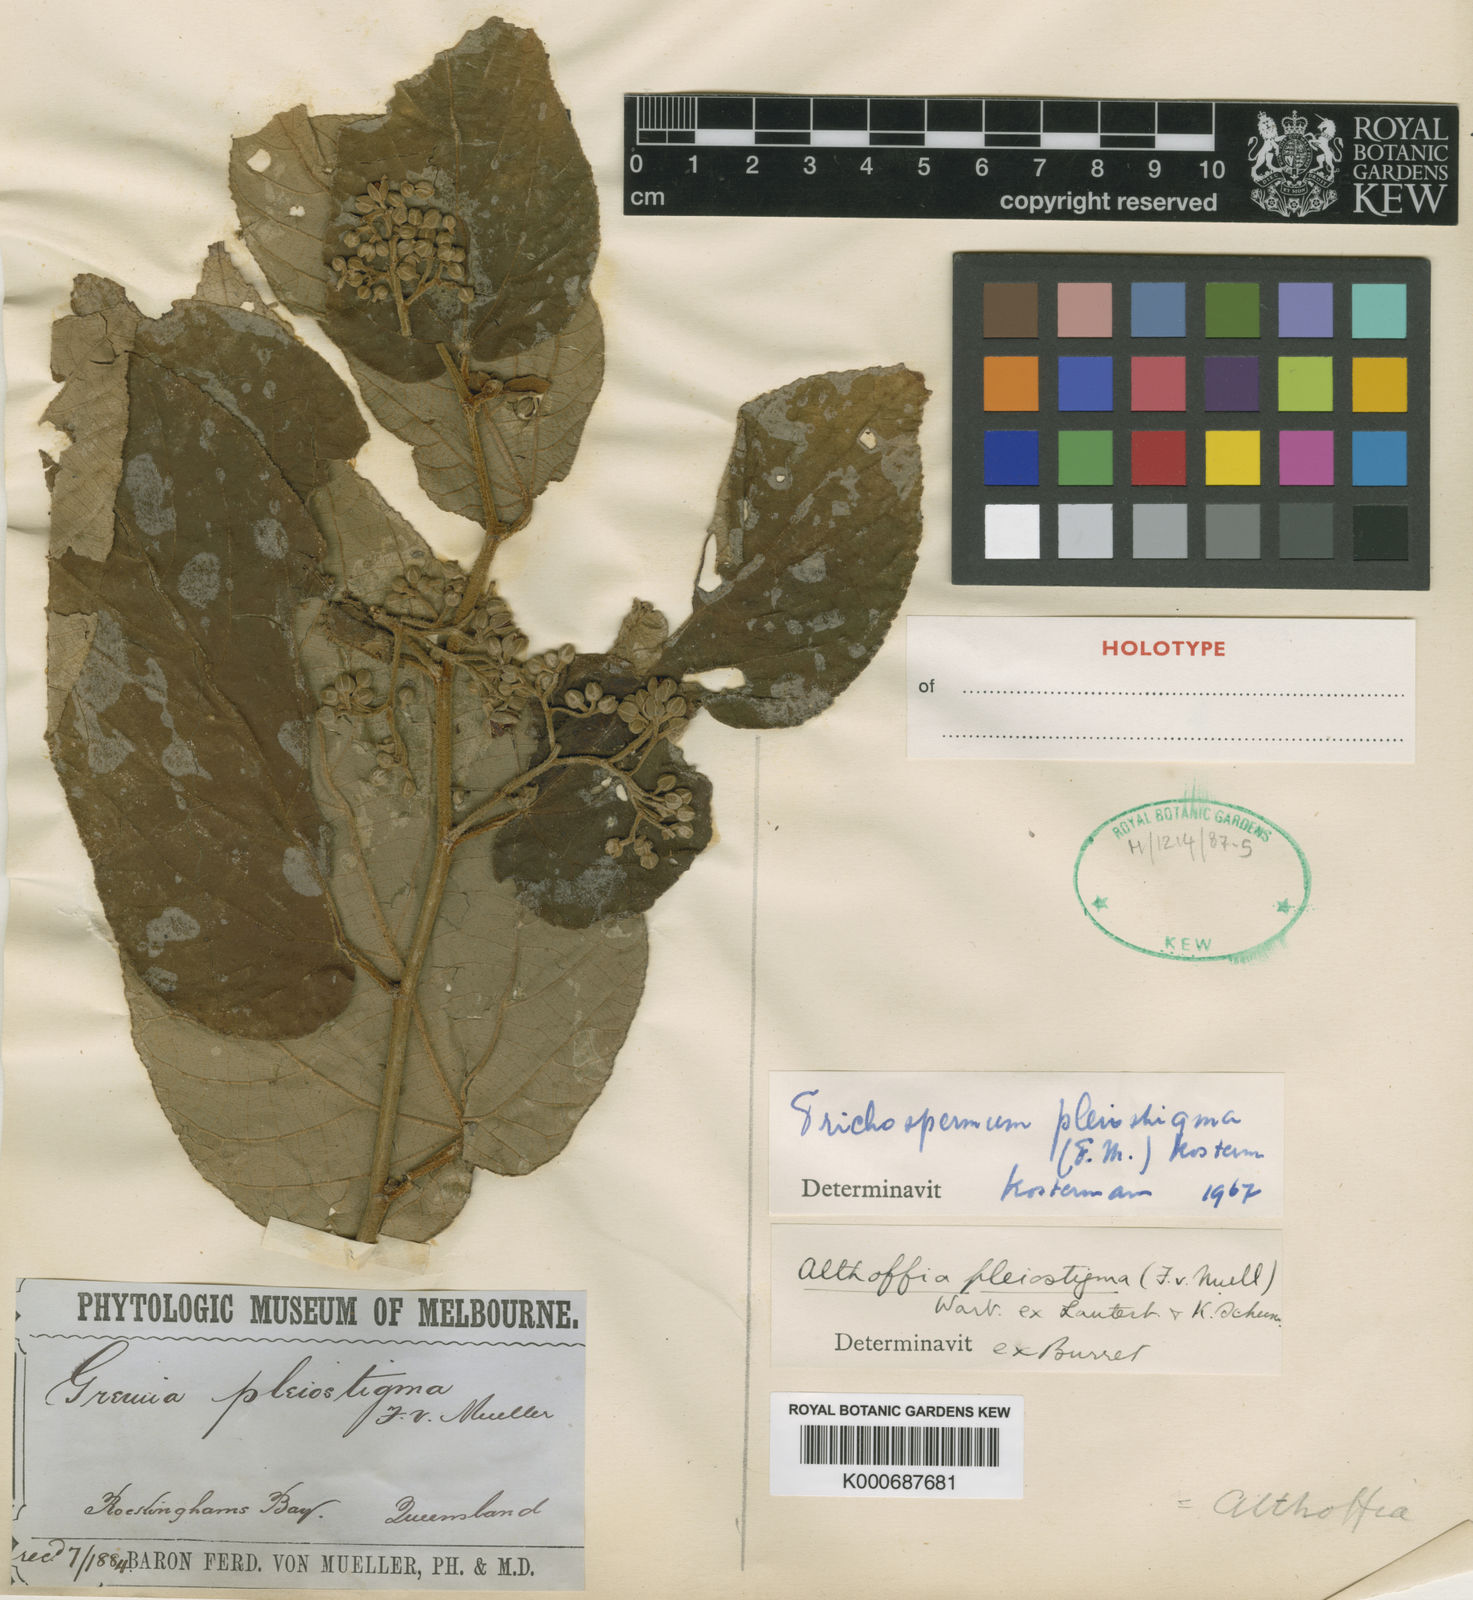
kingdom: Plantae
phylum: Tracheophyta
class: Magnoliopsida
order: Malvales
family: Malvaceae
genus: Trichospermum
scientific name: Trichospermum pleiostigma
